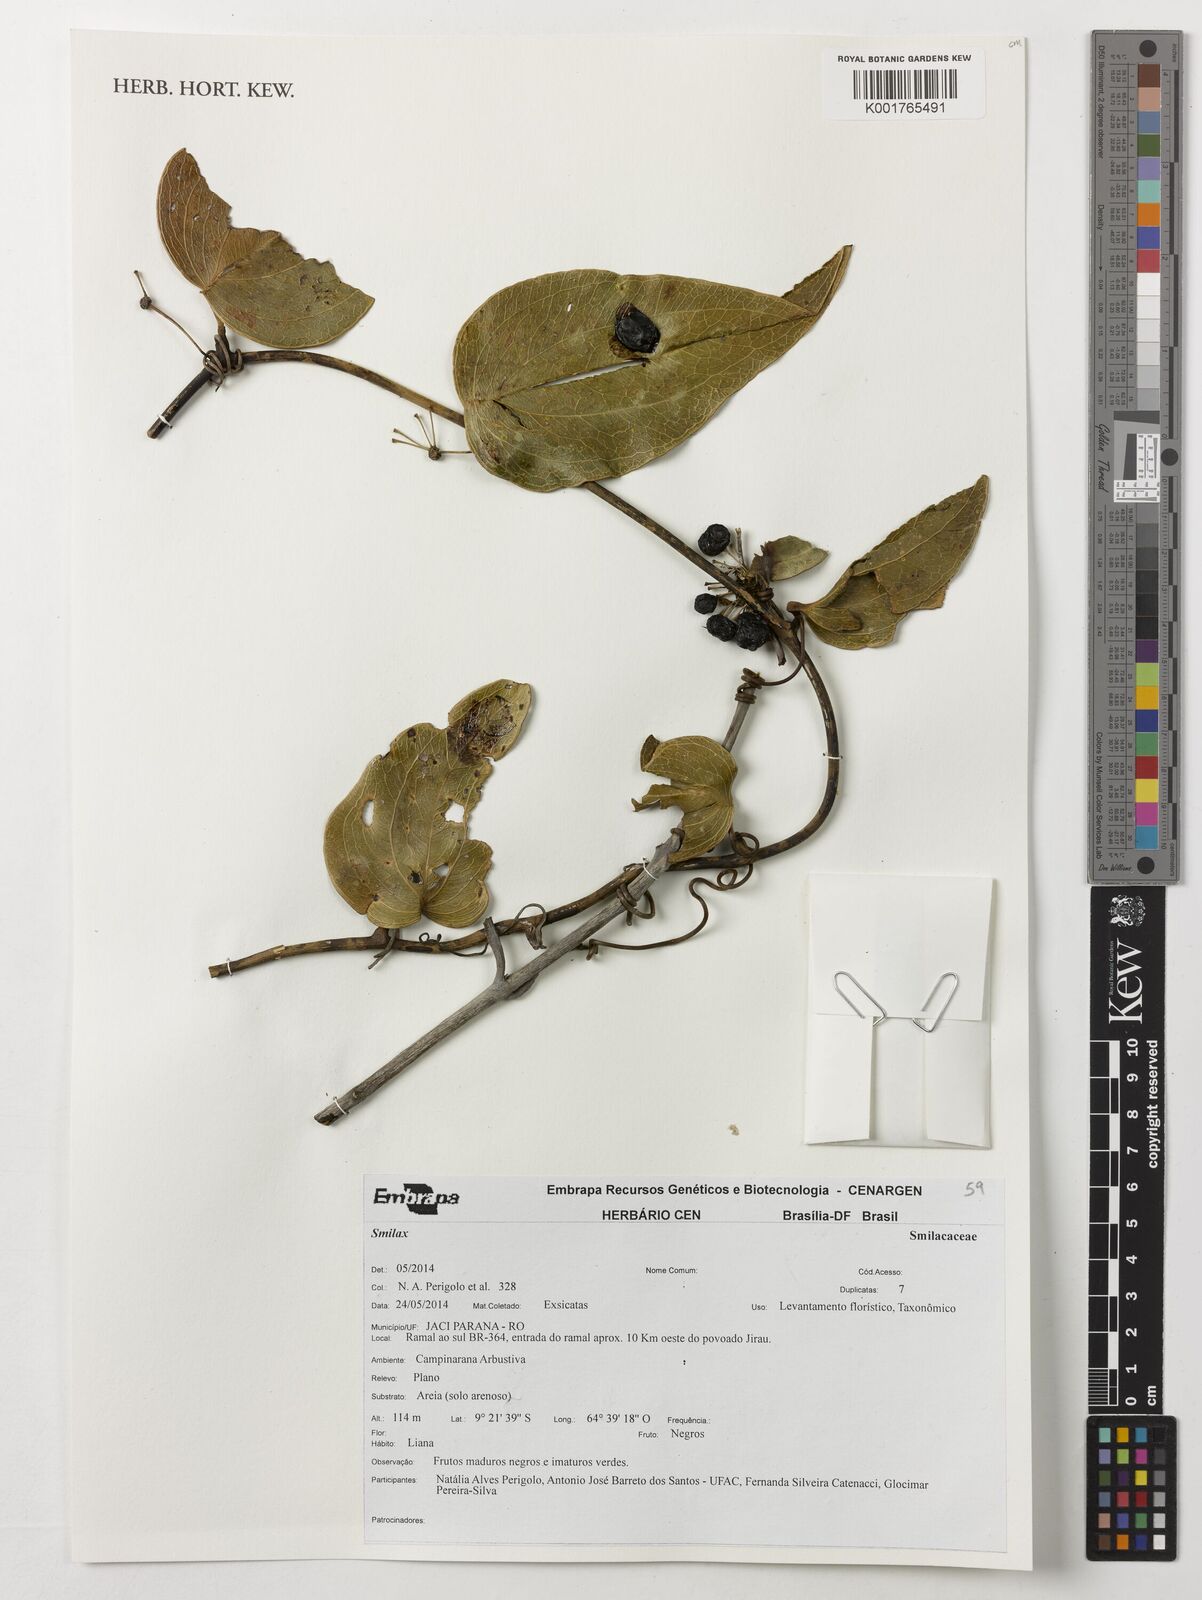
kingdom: Plantae
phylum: Tracheophyta
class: Liliopsida
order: Liliales
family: Smilacaceae
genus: Smilax
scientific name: Smilax
